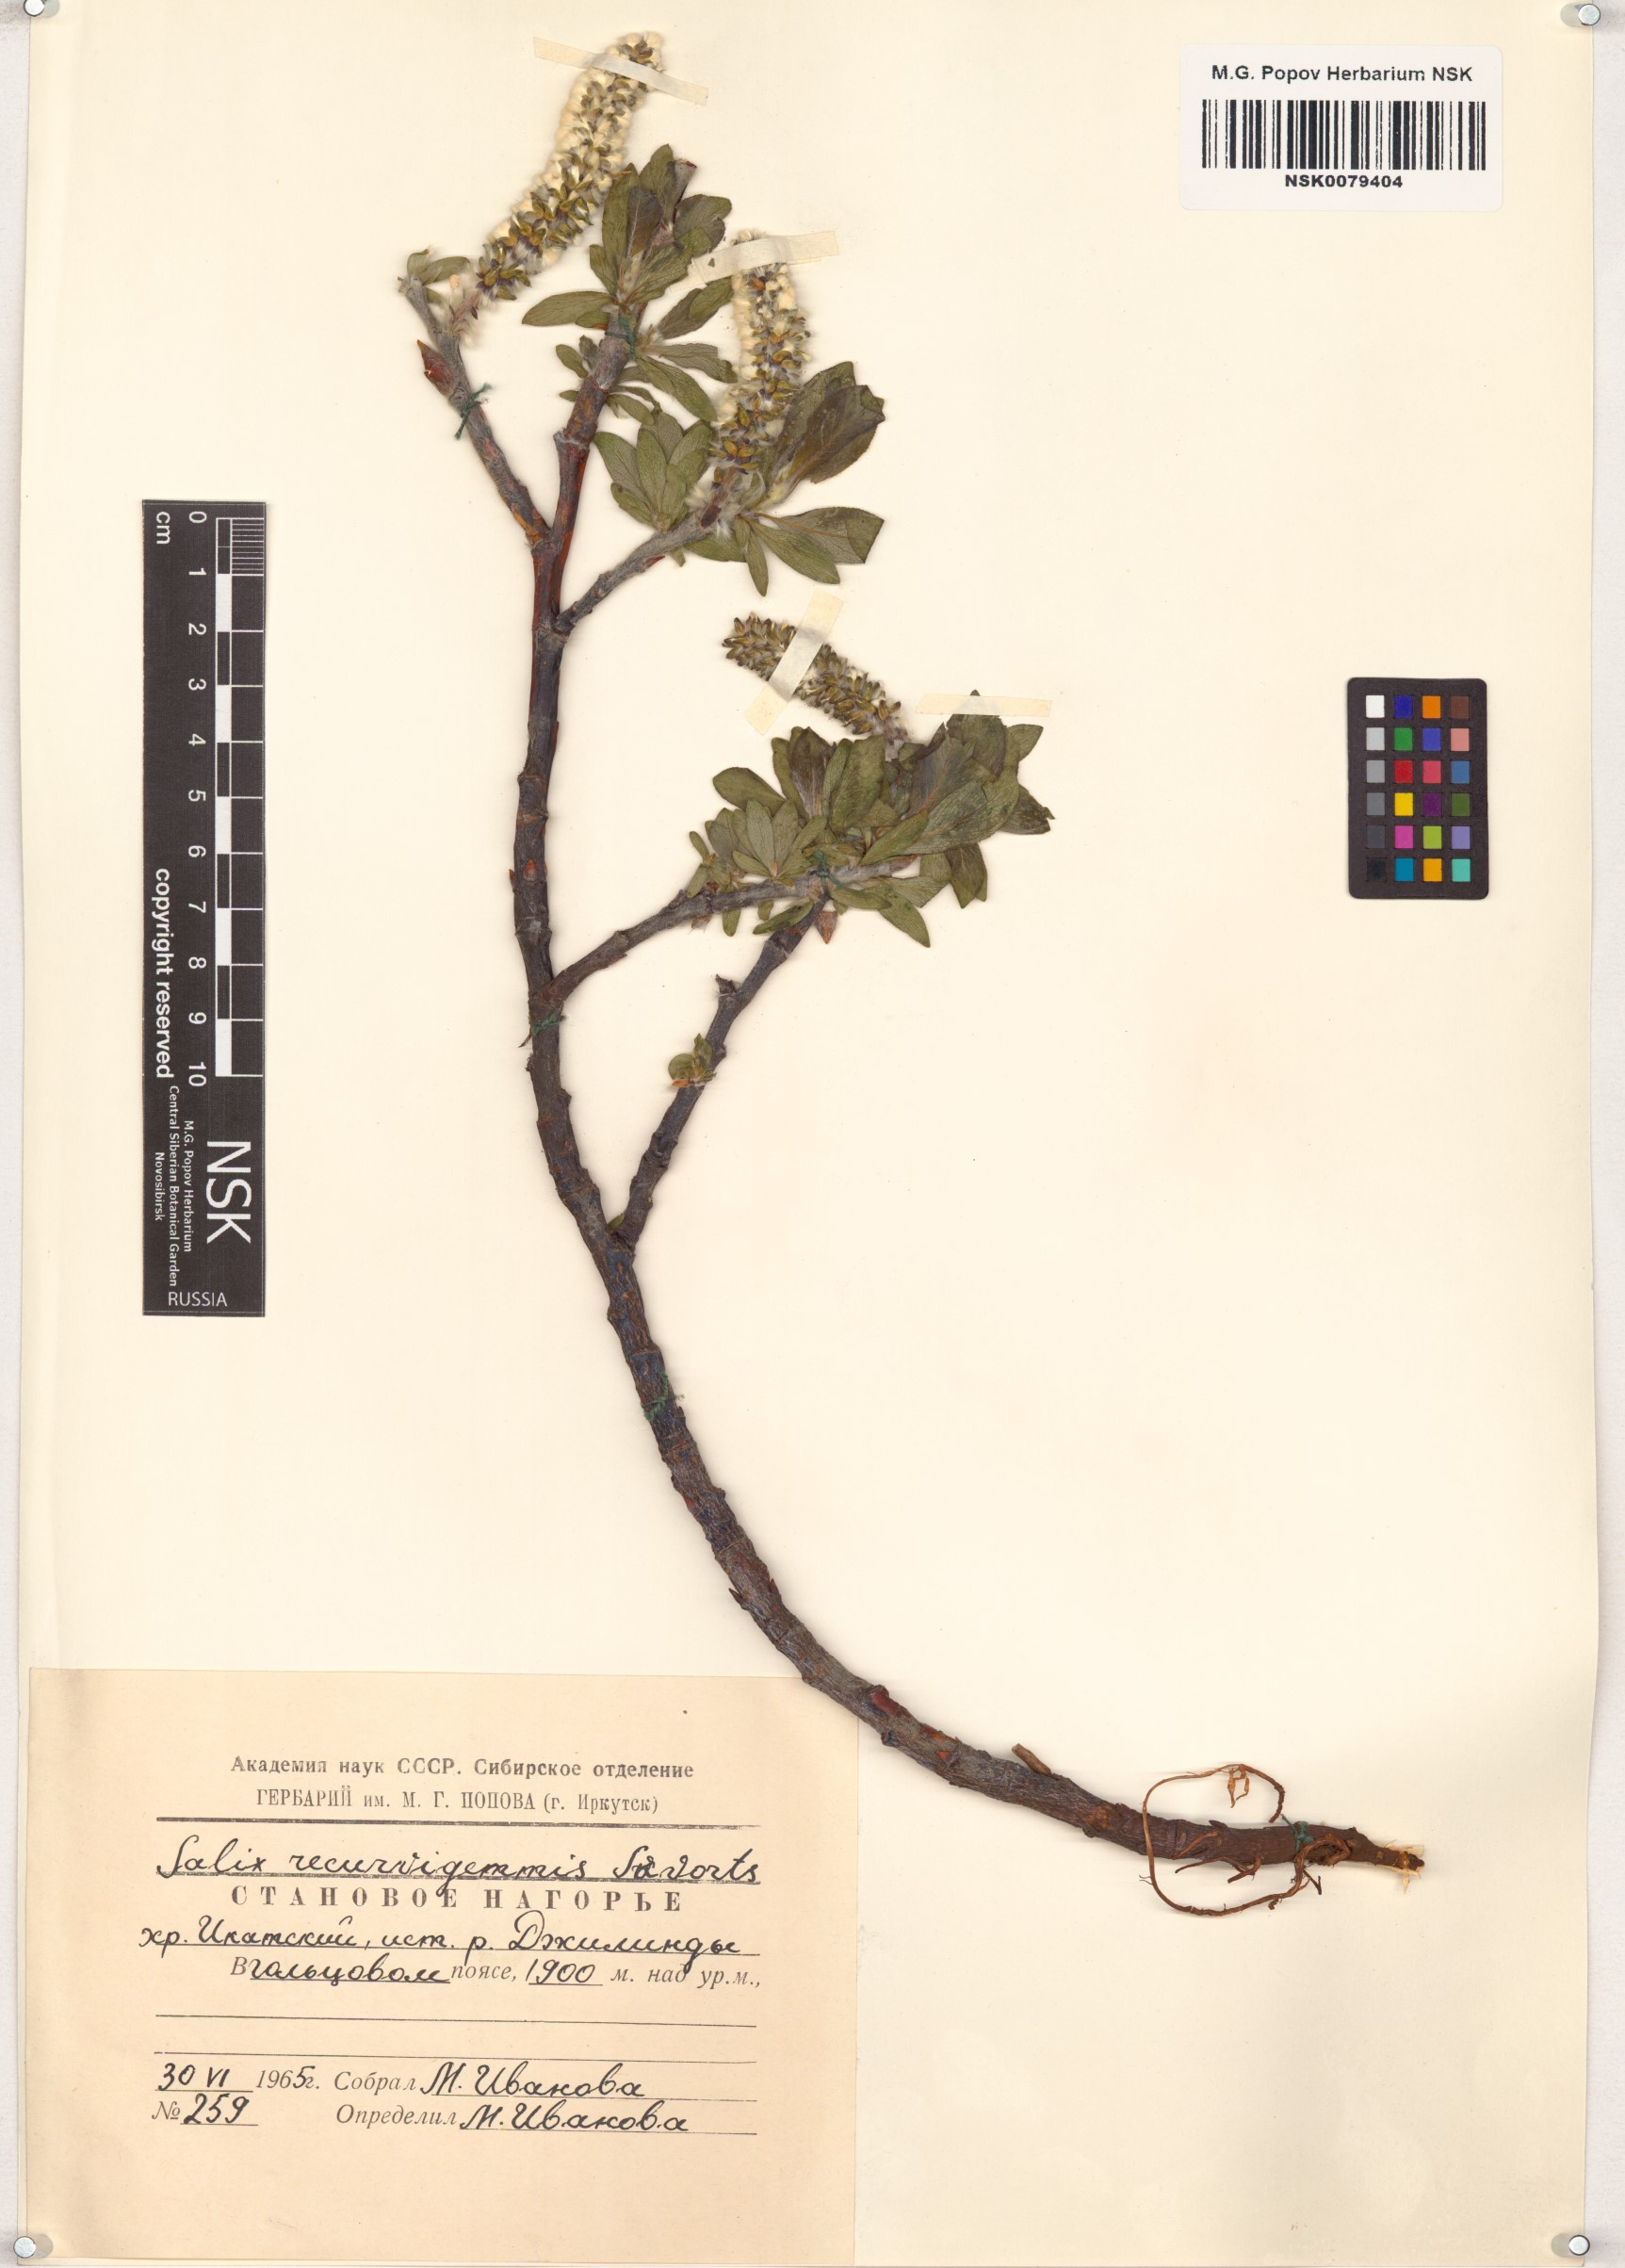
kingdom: Plantae
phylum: Tracheophyta
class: Magnoliopsida
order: Malpighiales
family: Salicaceae
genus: Salix
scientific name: Salix recurvigemmata
